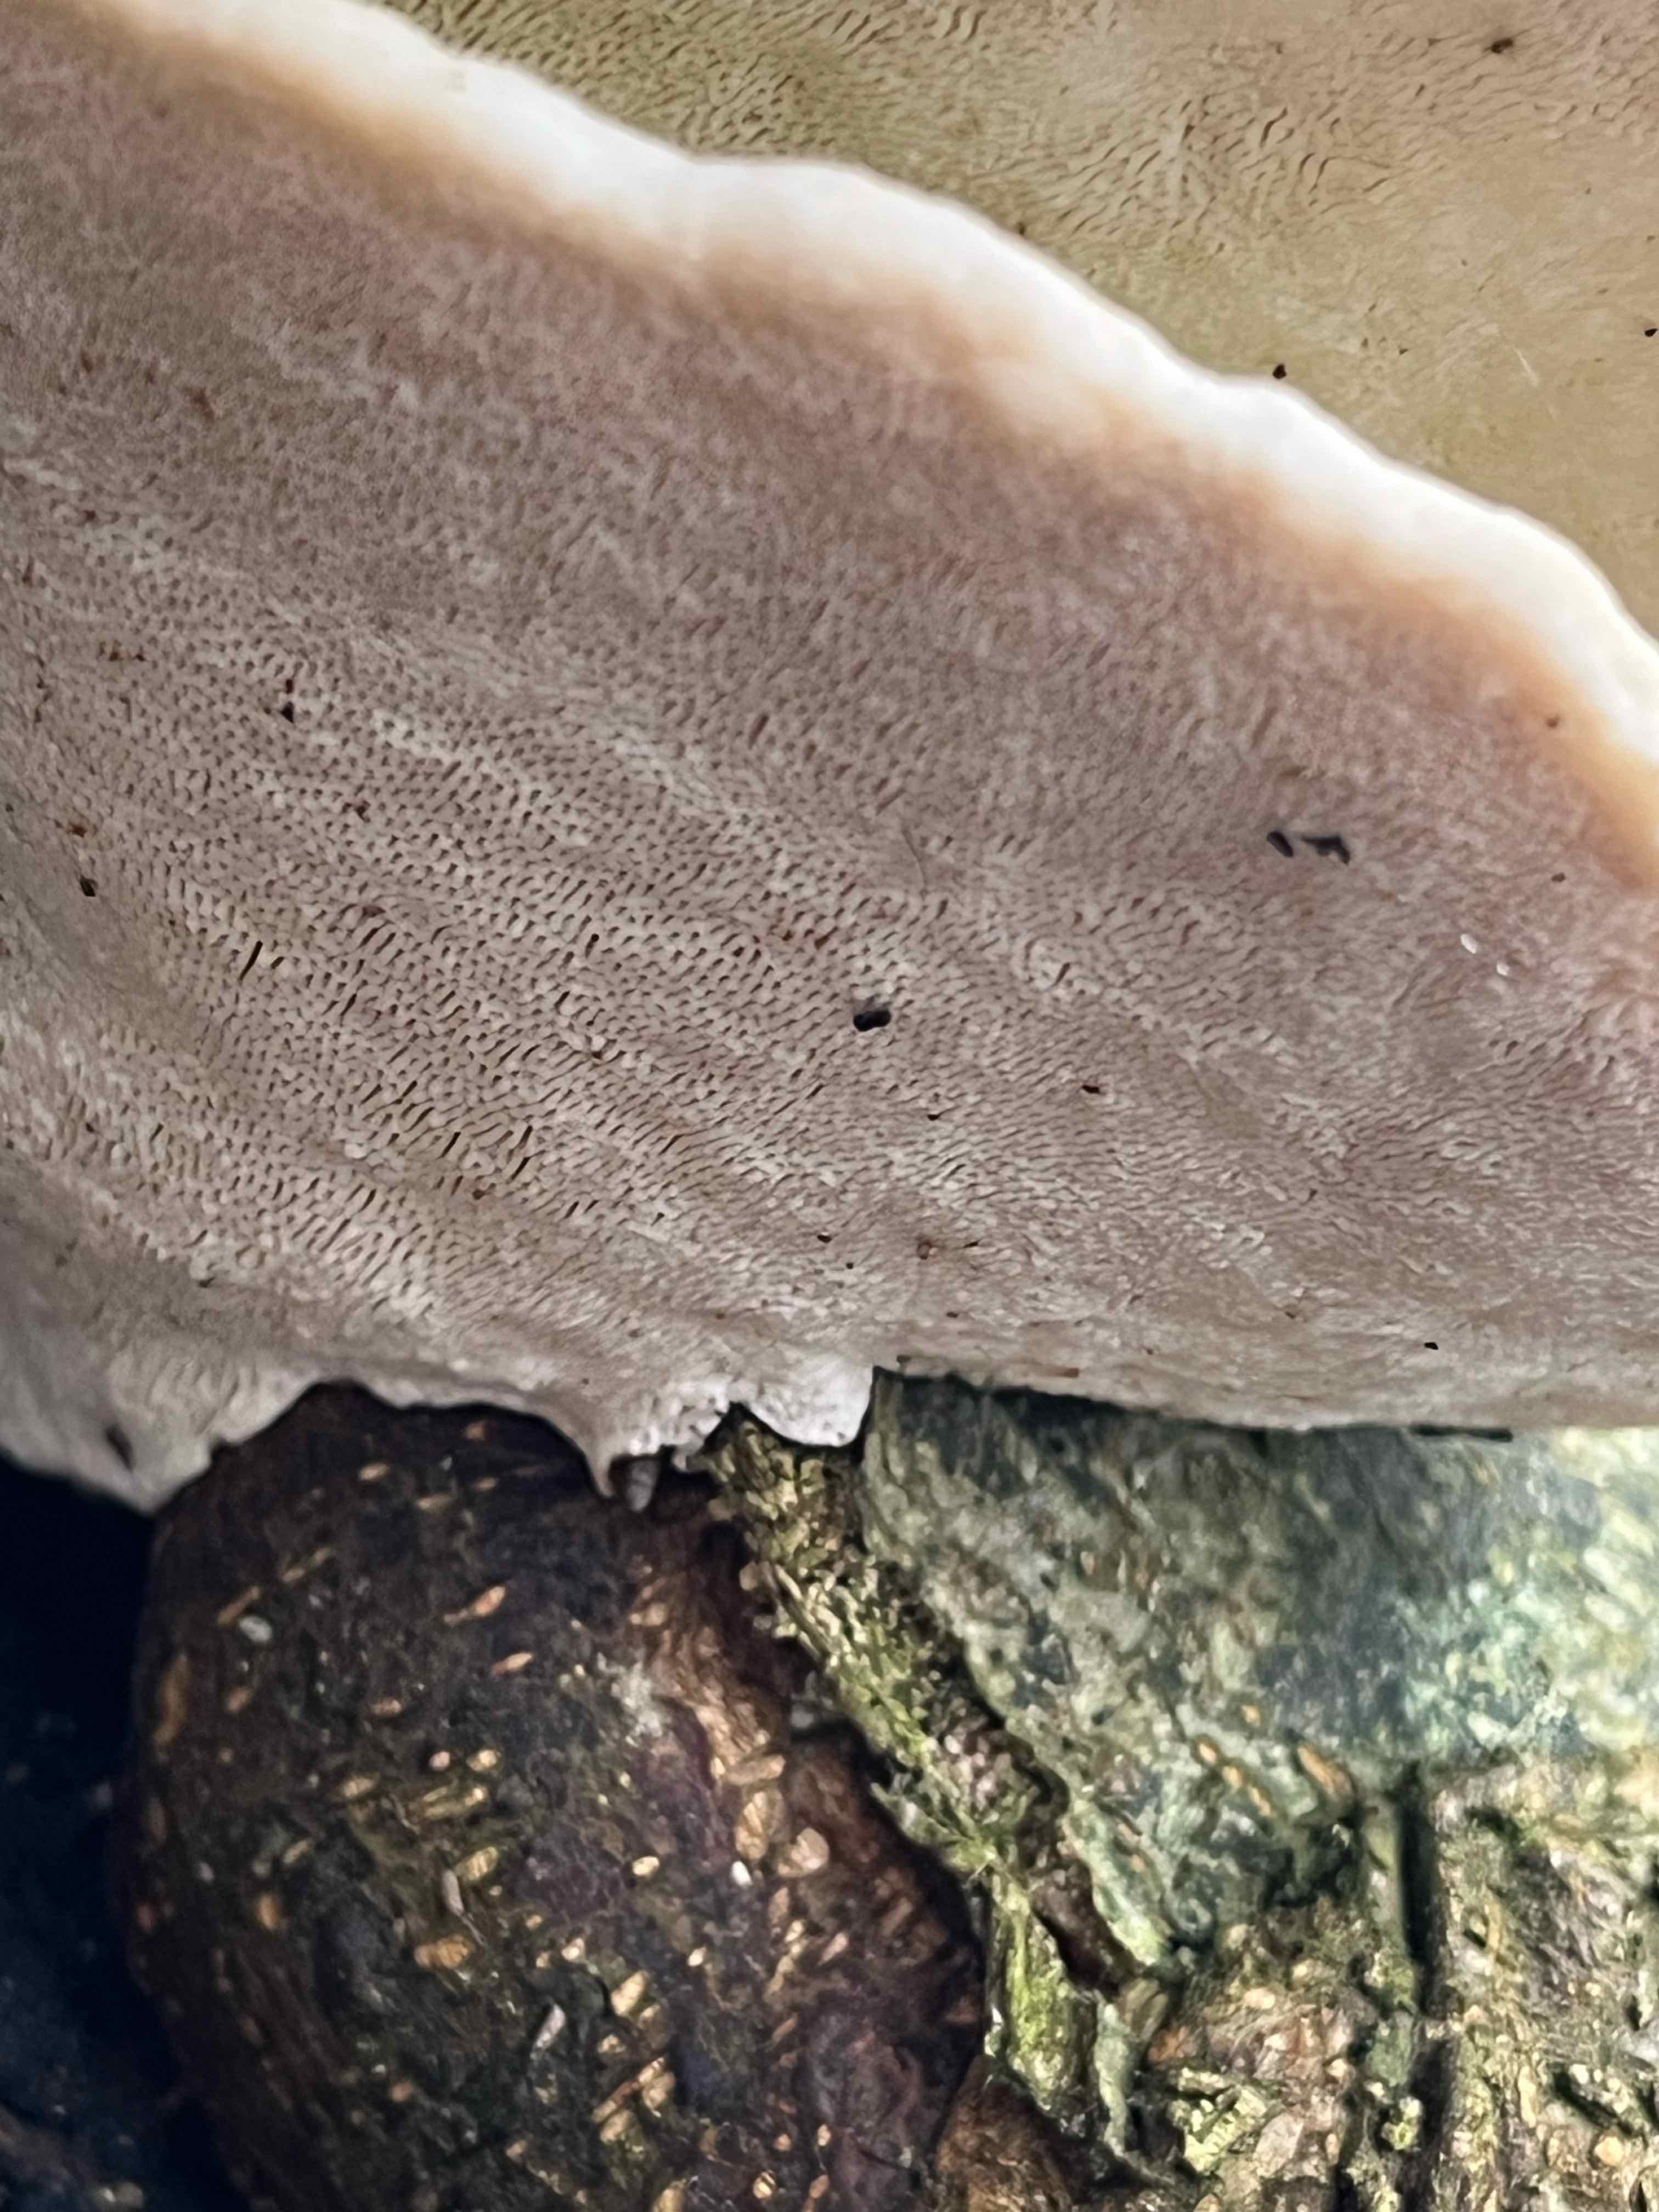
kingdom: Fungi
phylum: Basidiomycota
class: Agaricomycetes
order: Polyporales
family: Polyporaceae
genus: Trametes
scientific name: Trametes gibbosa
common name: puklet læderporesvamp
